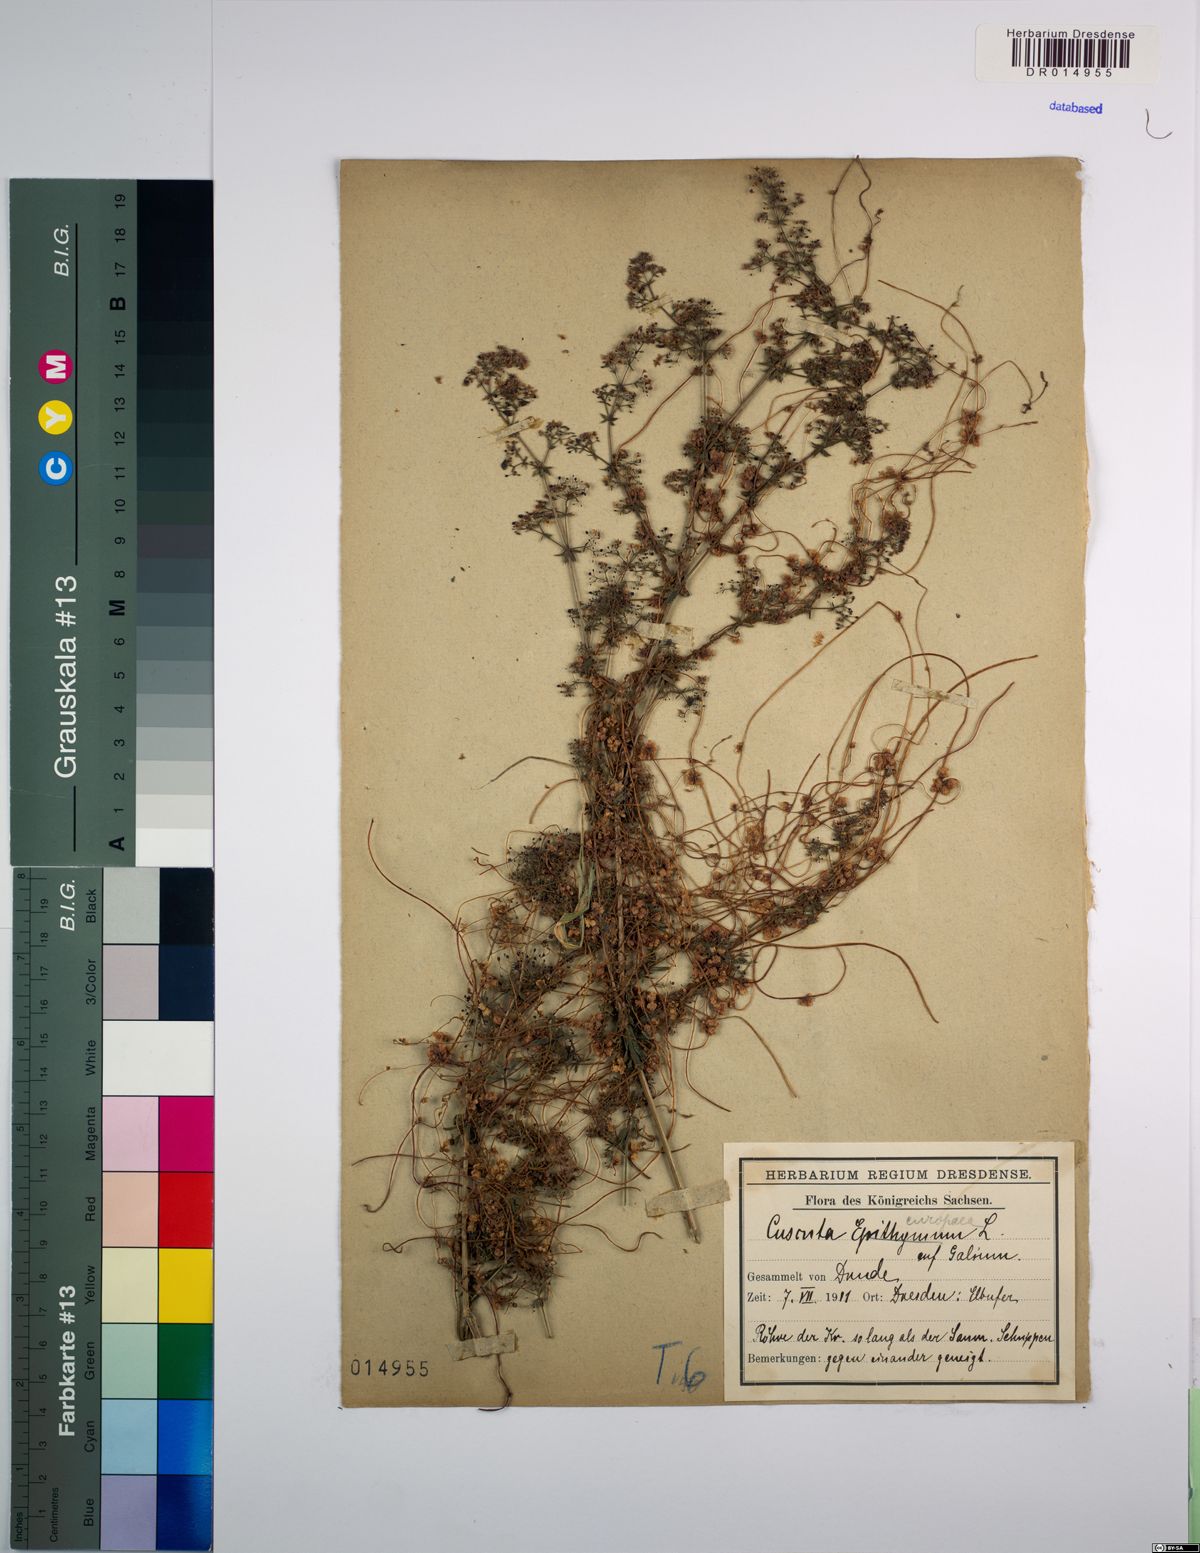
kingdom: Plantae
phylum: Tracheophyta
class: Magnoliopsida
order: Solanales
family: Convolvulaceae
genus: Cuscuta
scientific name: Cuscuta europaea
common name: Greater dodder
